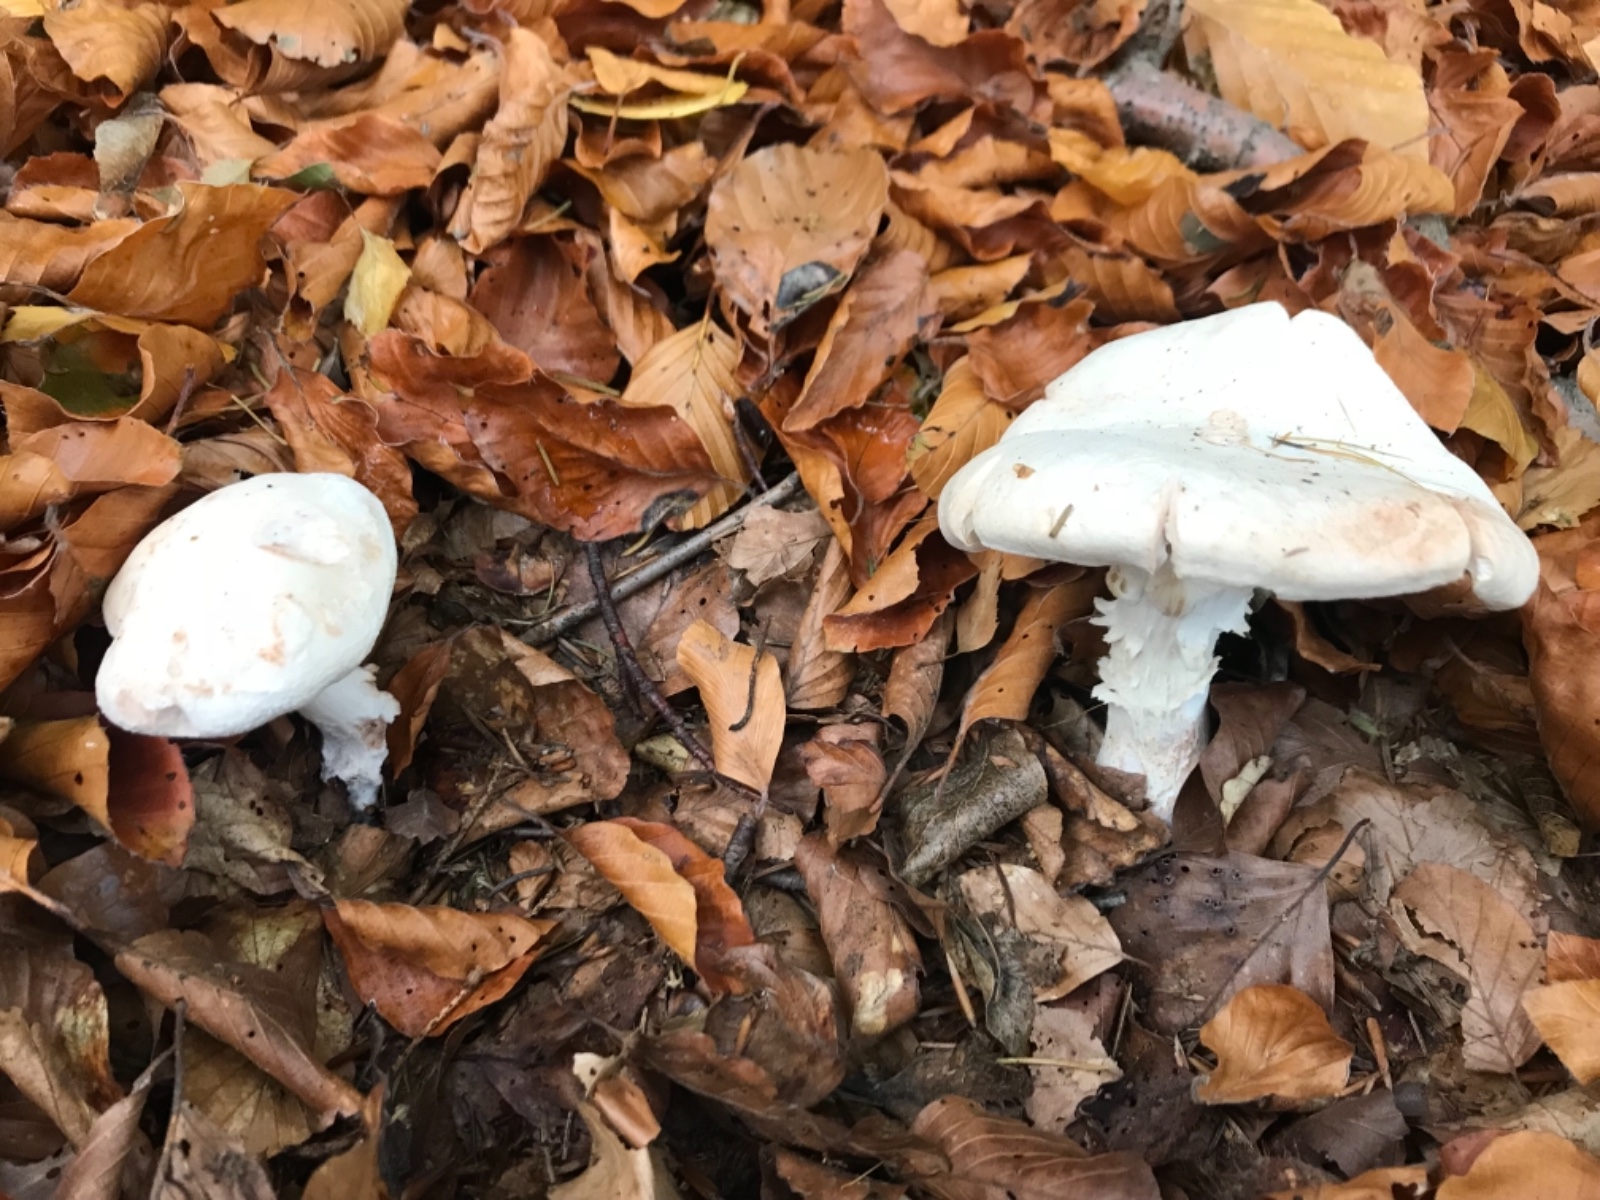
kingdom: Fungi
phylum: Basidiomycota
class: Agaricomycetes
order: Agaricales
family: Omphalotaceae
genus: Rhodocollybia
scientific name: Rhodocollybia maculata
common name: plettet fladhat
